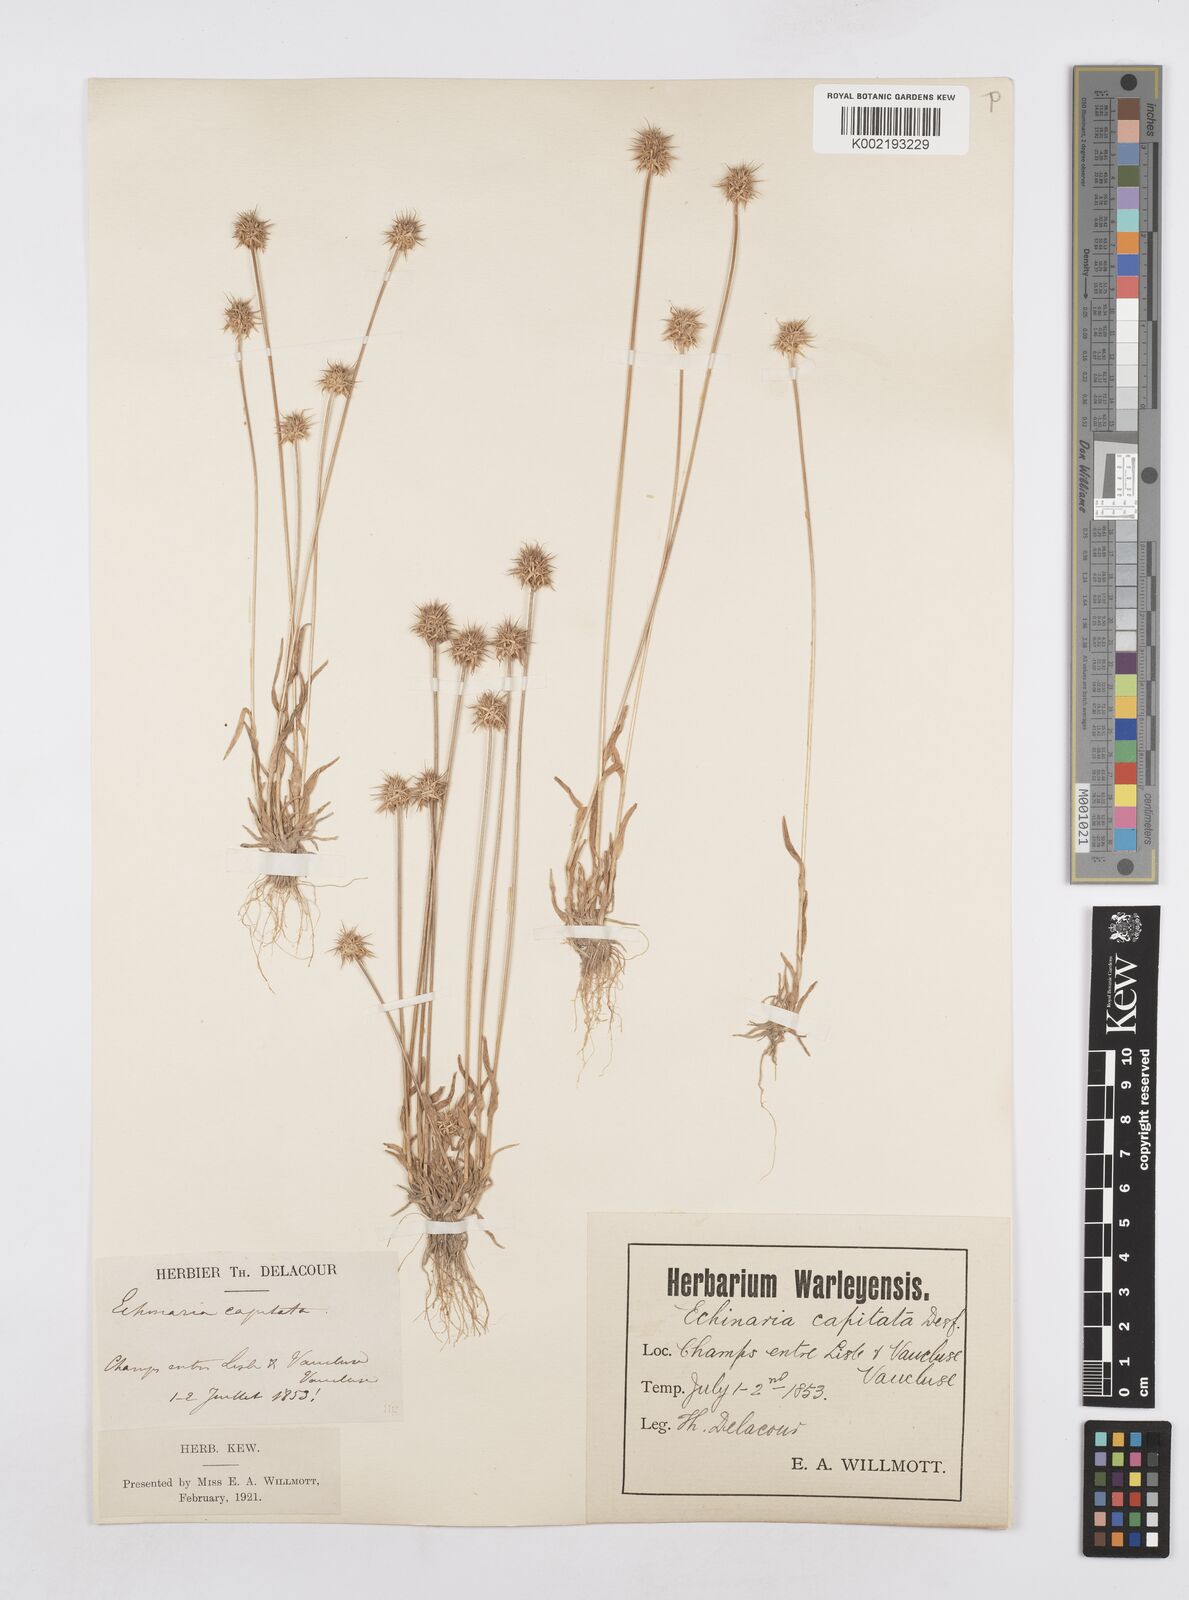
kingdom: Plantae
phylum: Tracheophyta
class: Liliopsida
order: Poales
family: Poaceae
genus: Echinaria
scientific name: Echinaria capitata
